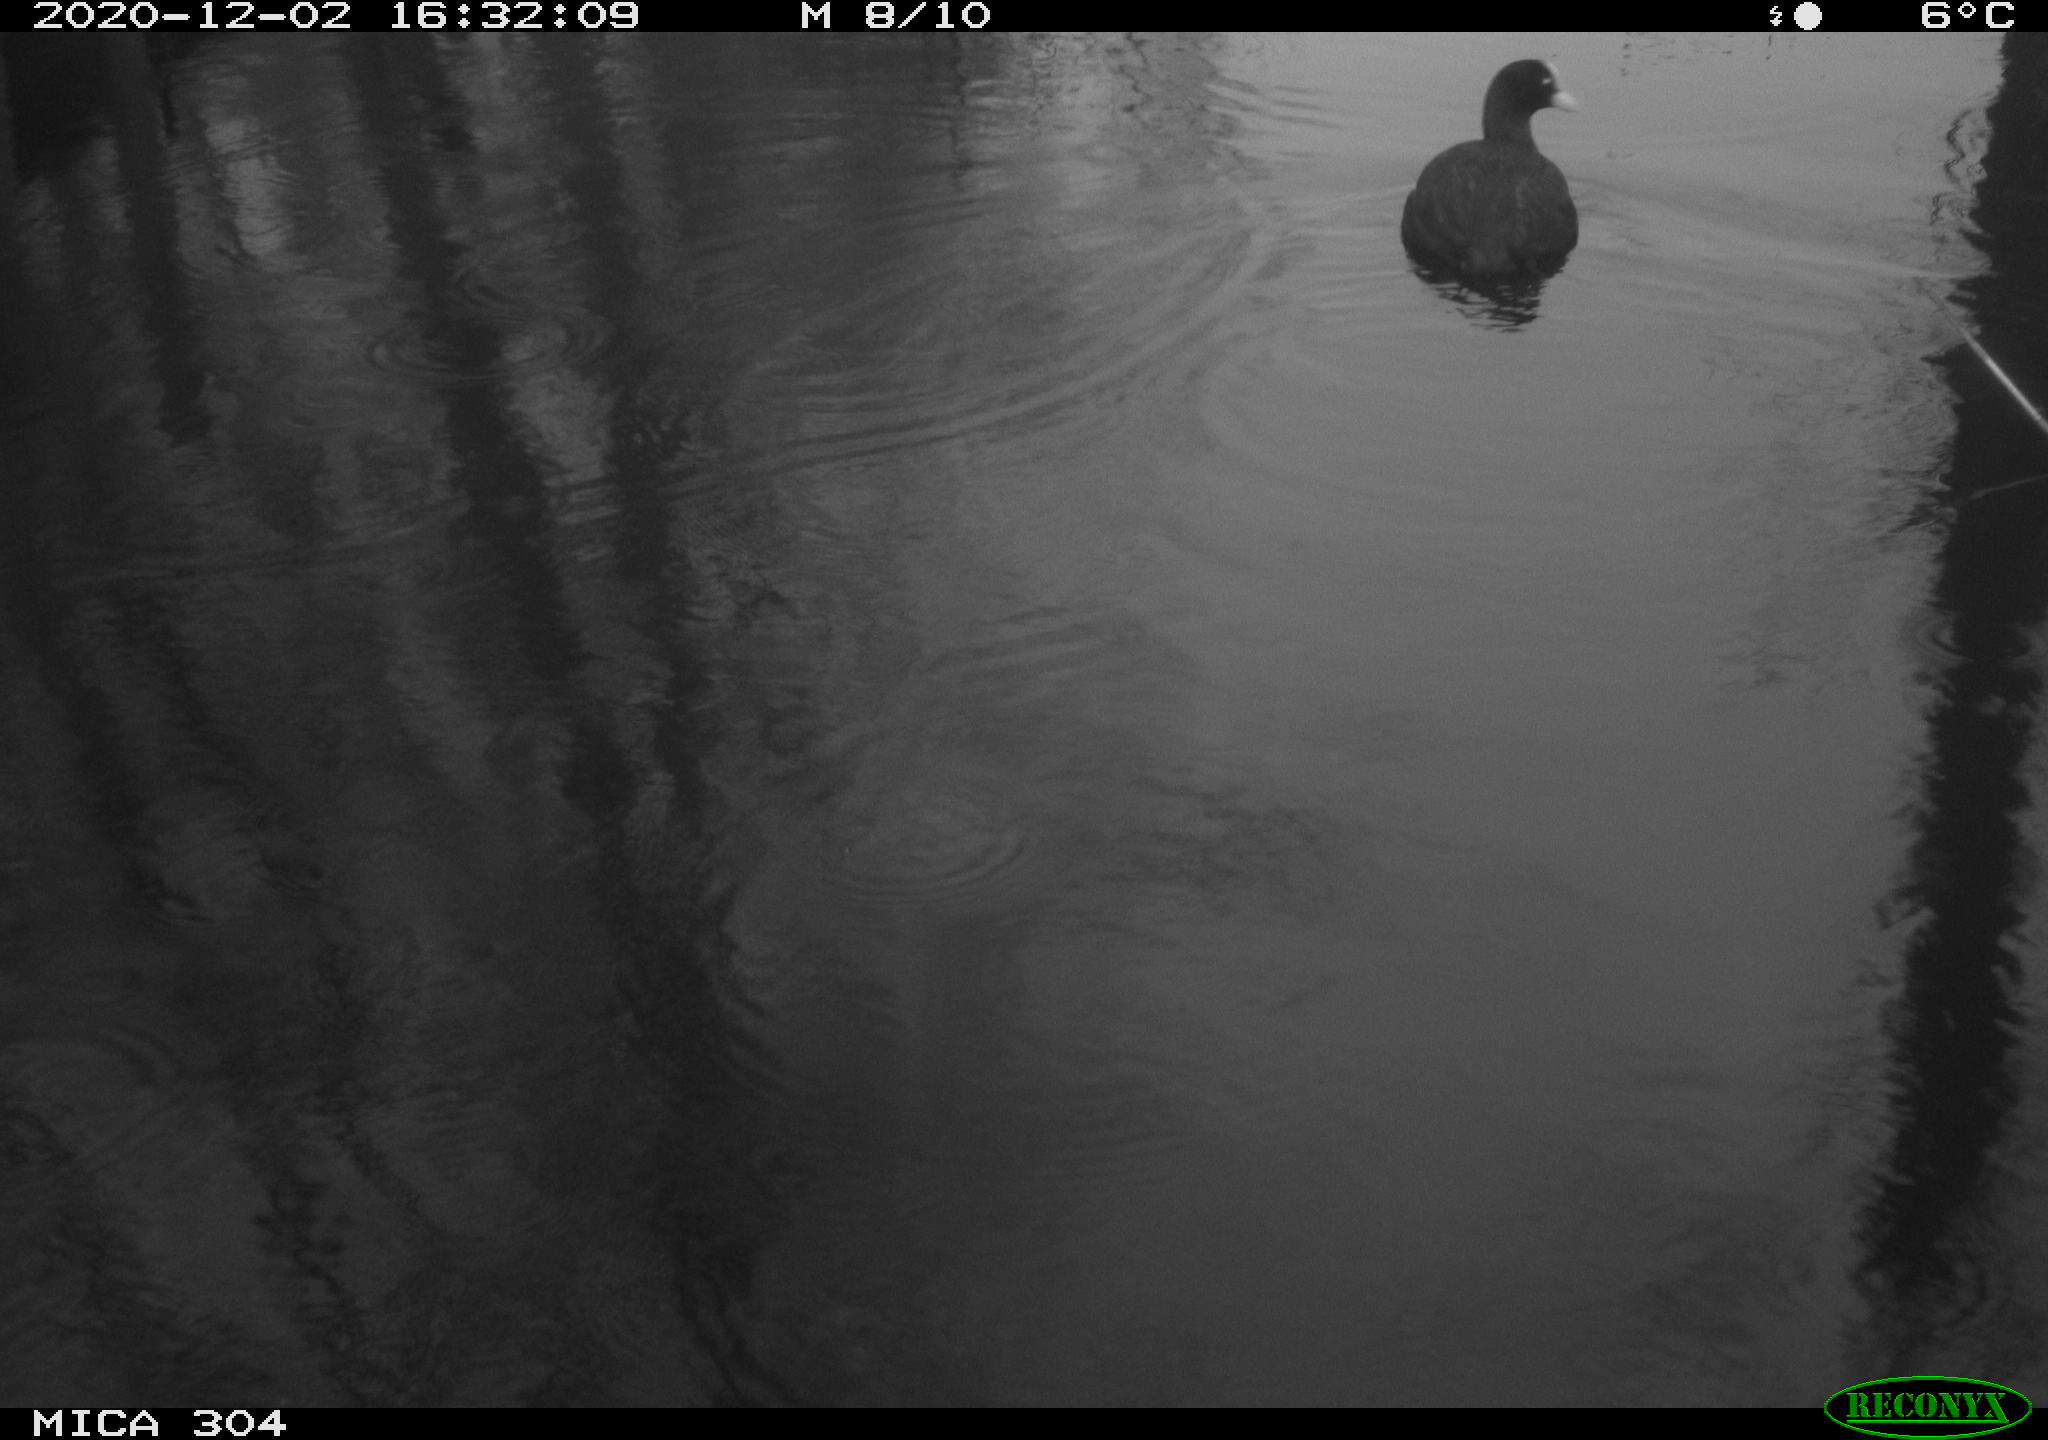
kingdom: Animalia
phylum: Chordata
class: Aves
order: Gruiformes
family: Rallidae
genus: Fulica
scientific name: Fulica atra
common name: Eurasian coot
